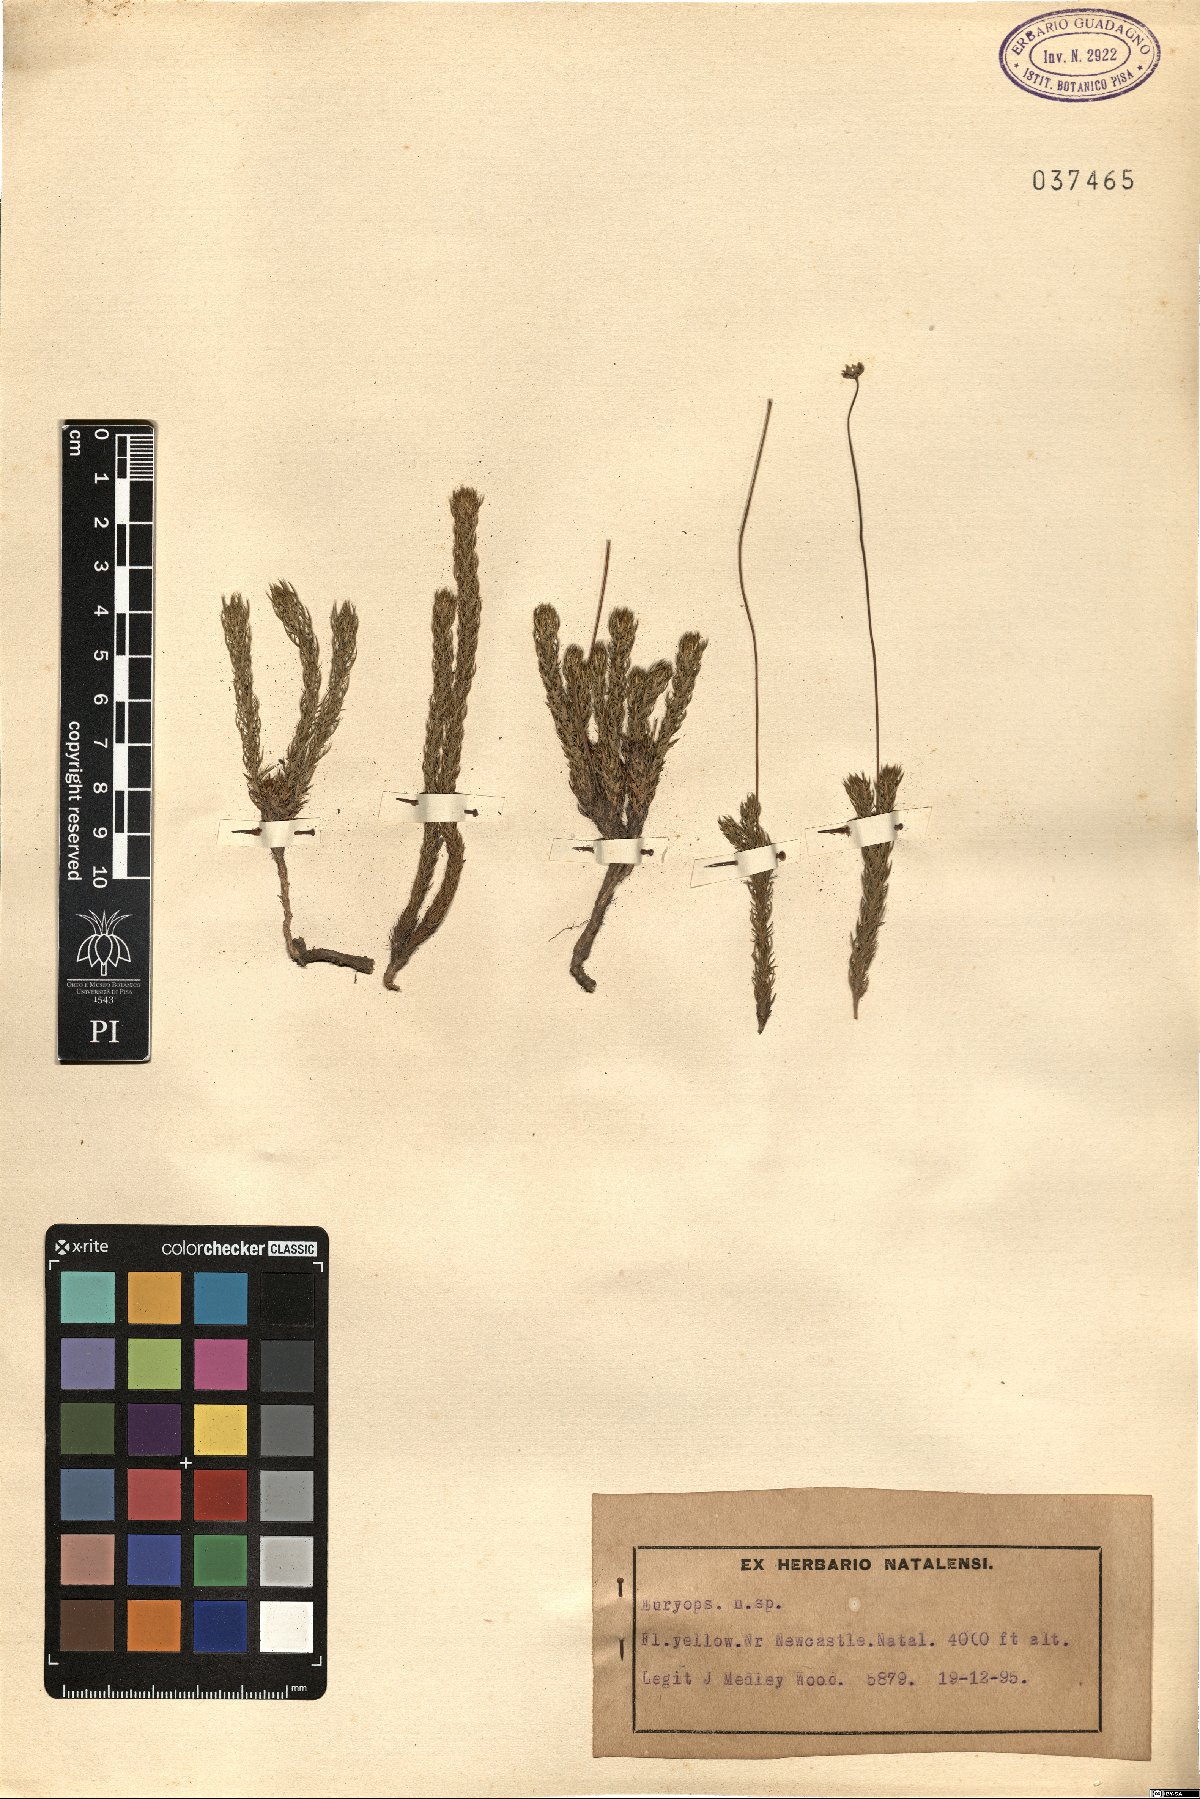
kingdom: Plantae
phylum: Tracheophyta
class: Magnoliopsida
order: Asterales
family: Asteraceae
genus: Euryops
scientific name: Euryops
